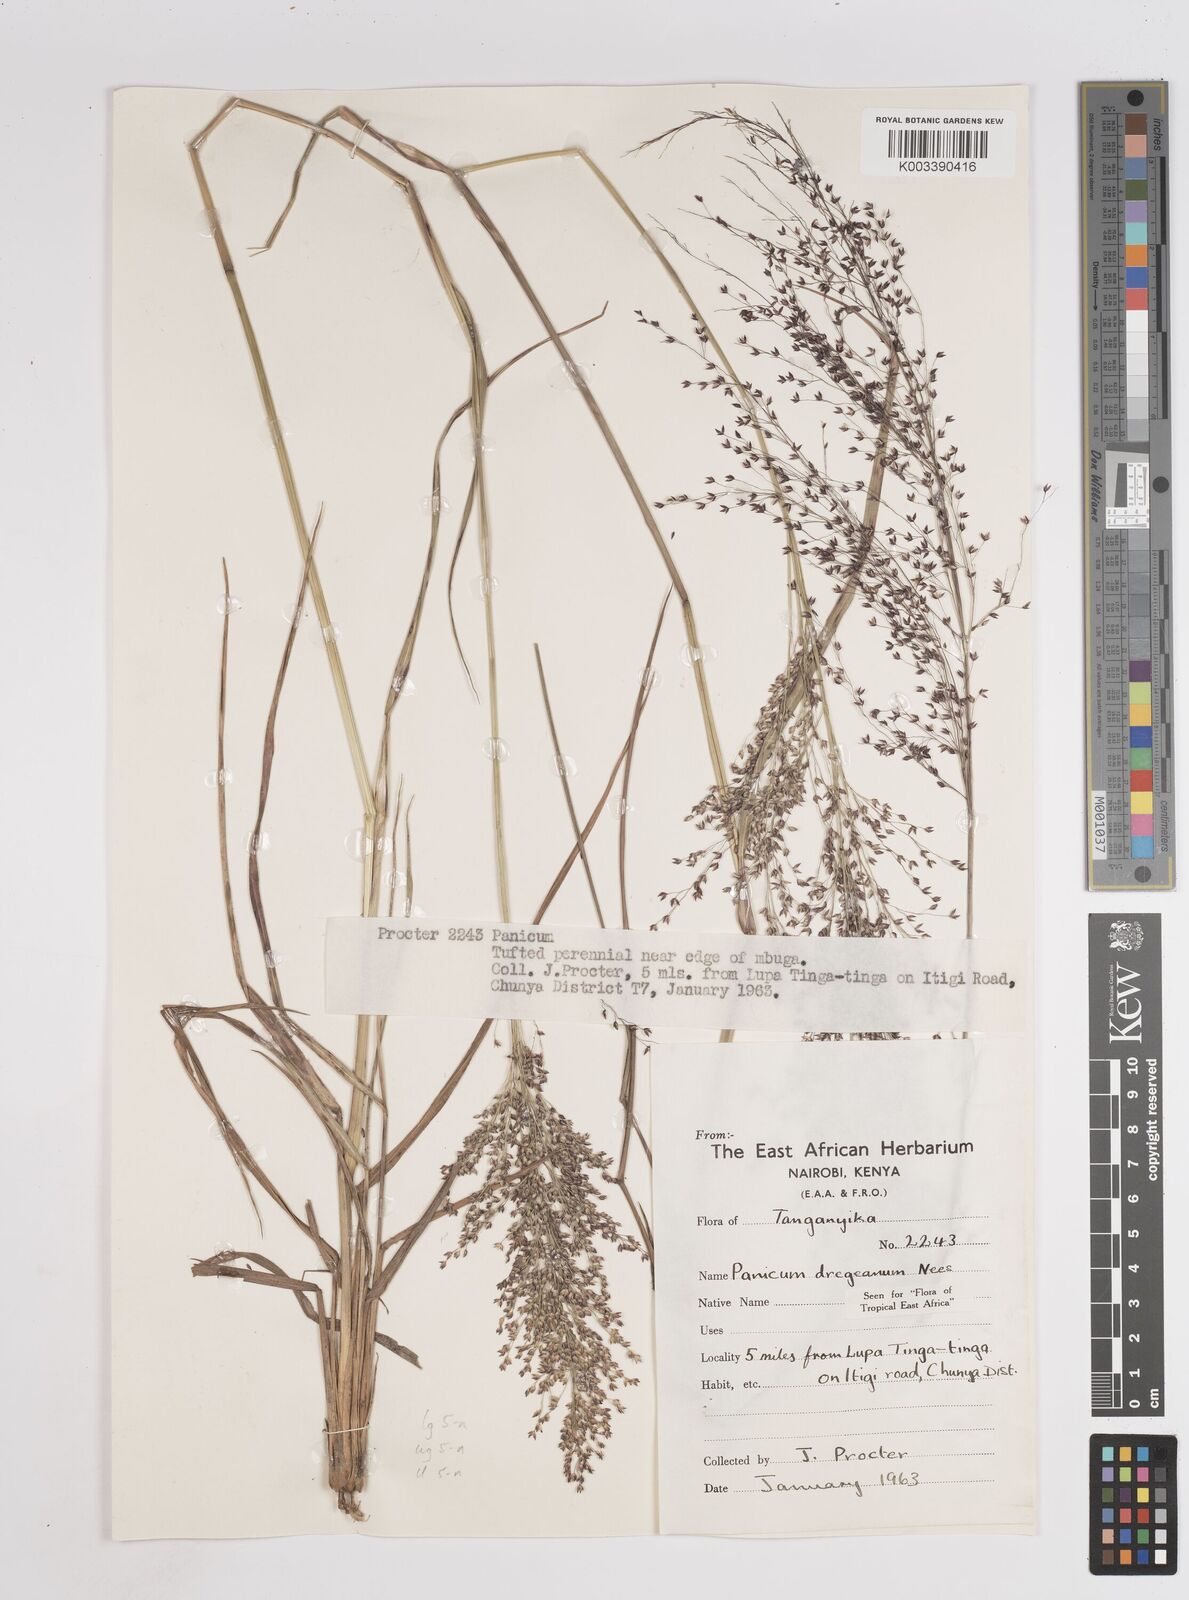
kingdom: Plantae
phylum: Tracheophyta
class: Liliopsida
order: Poales
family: Poaceae
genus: Panicum
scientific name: Panicum dregeanum
